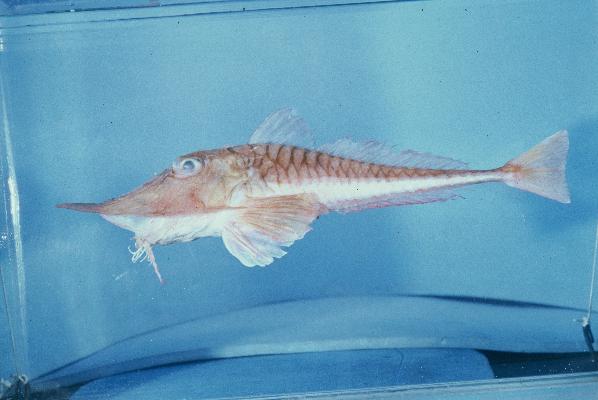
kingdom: Animalia
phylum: Chordata
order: Scorpaeniformes
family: Peristediidae
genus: Satyrichthys
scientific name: Satyrichthys laticeps
